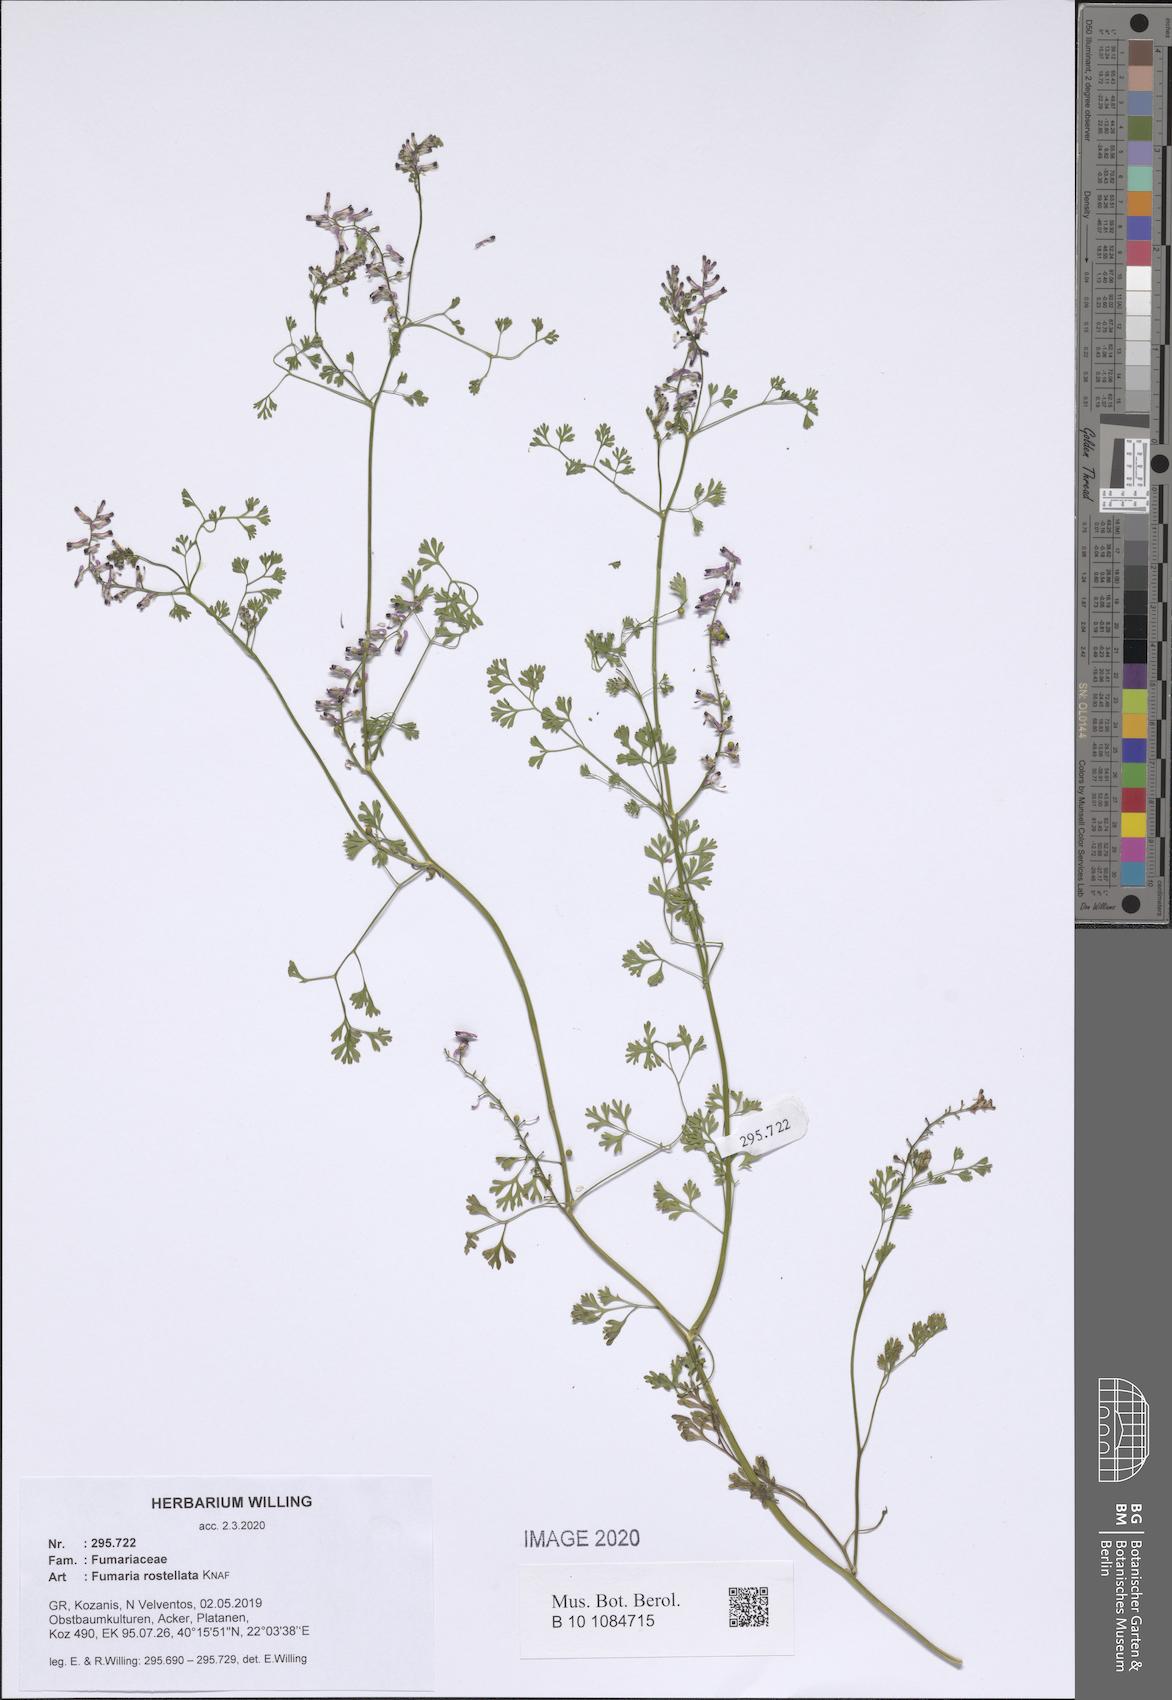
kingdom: Plantae
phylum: Tracheophyta
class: Magnoliopsida
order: Ranunculales
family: Papaveraceae
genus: Fumaria
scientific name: Fumaria rostellata
